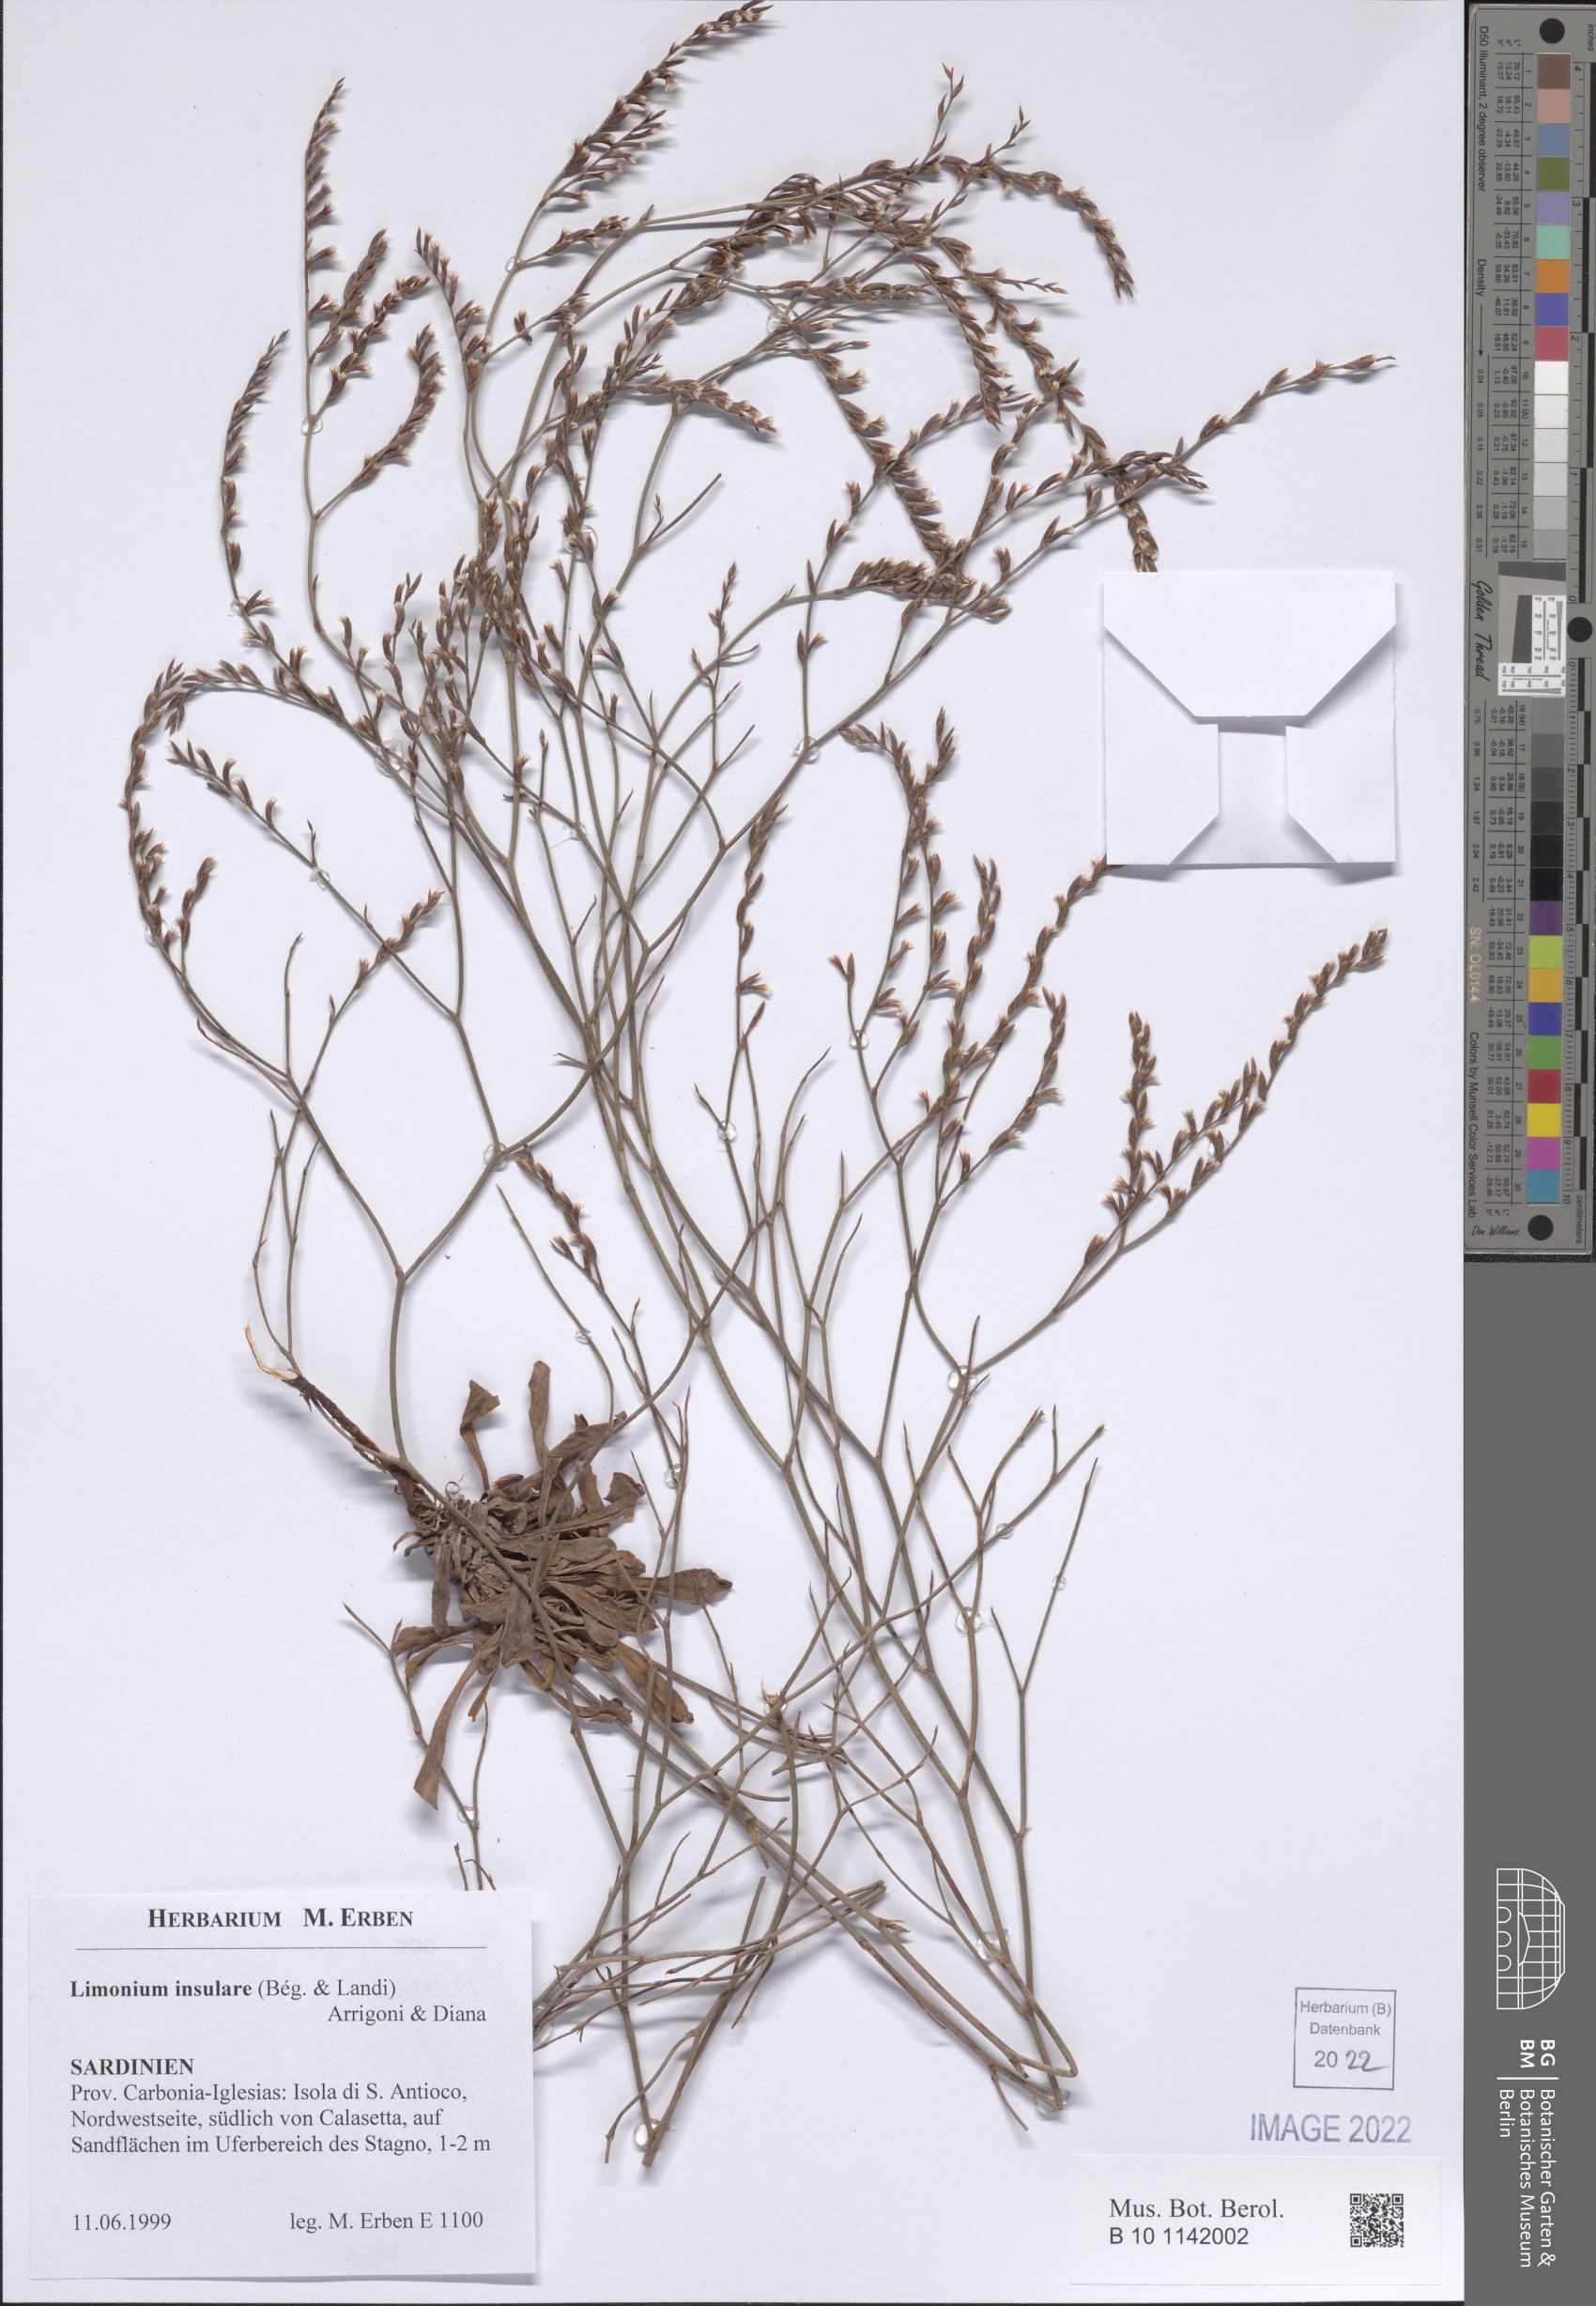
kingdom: Plantae
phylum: Tracheophyta
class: Magnoliopsida
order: Caryophyllales
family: Plumbaginaceae
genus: Limonium
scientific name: Limonium insulare
